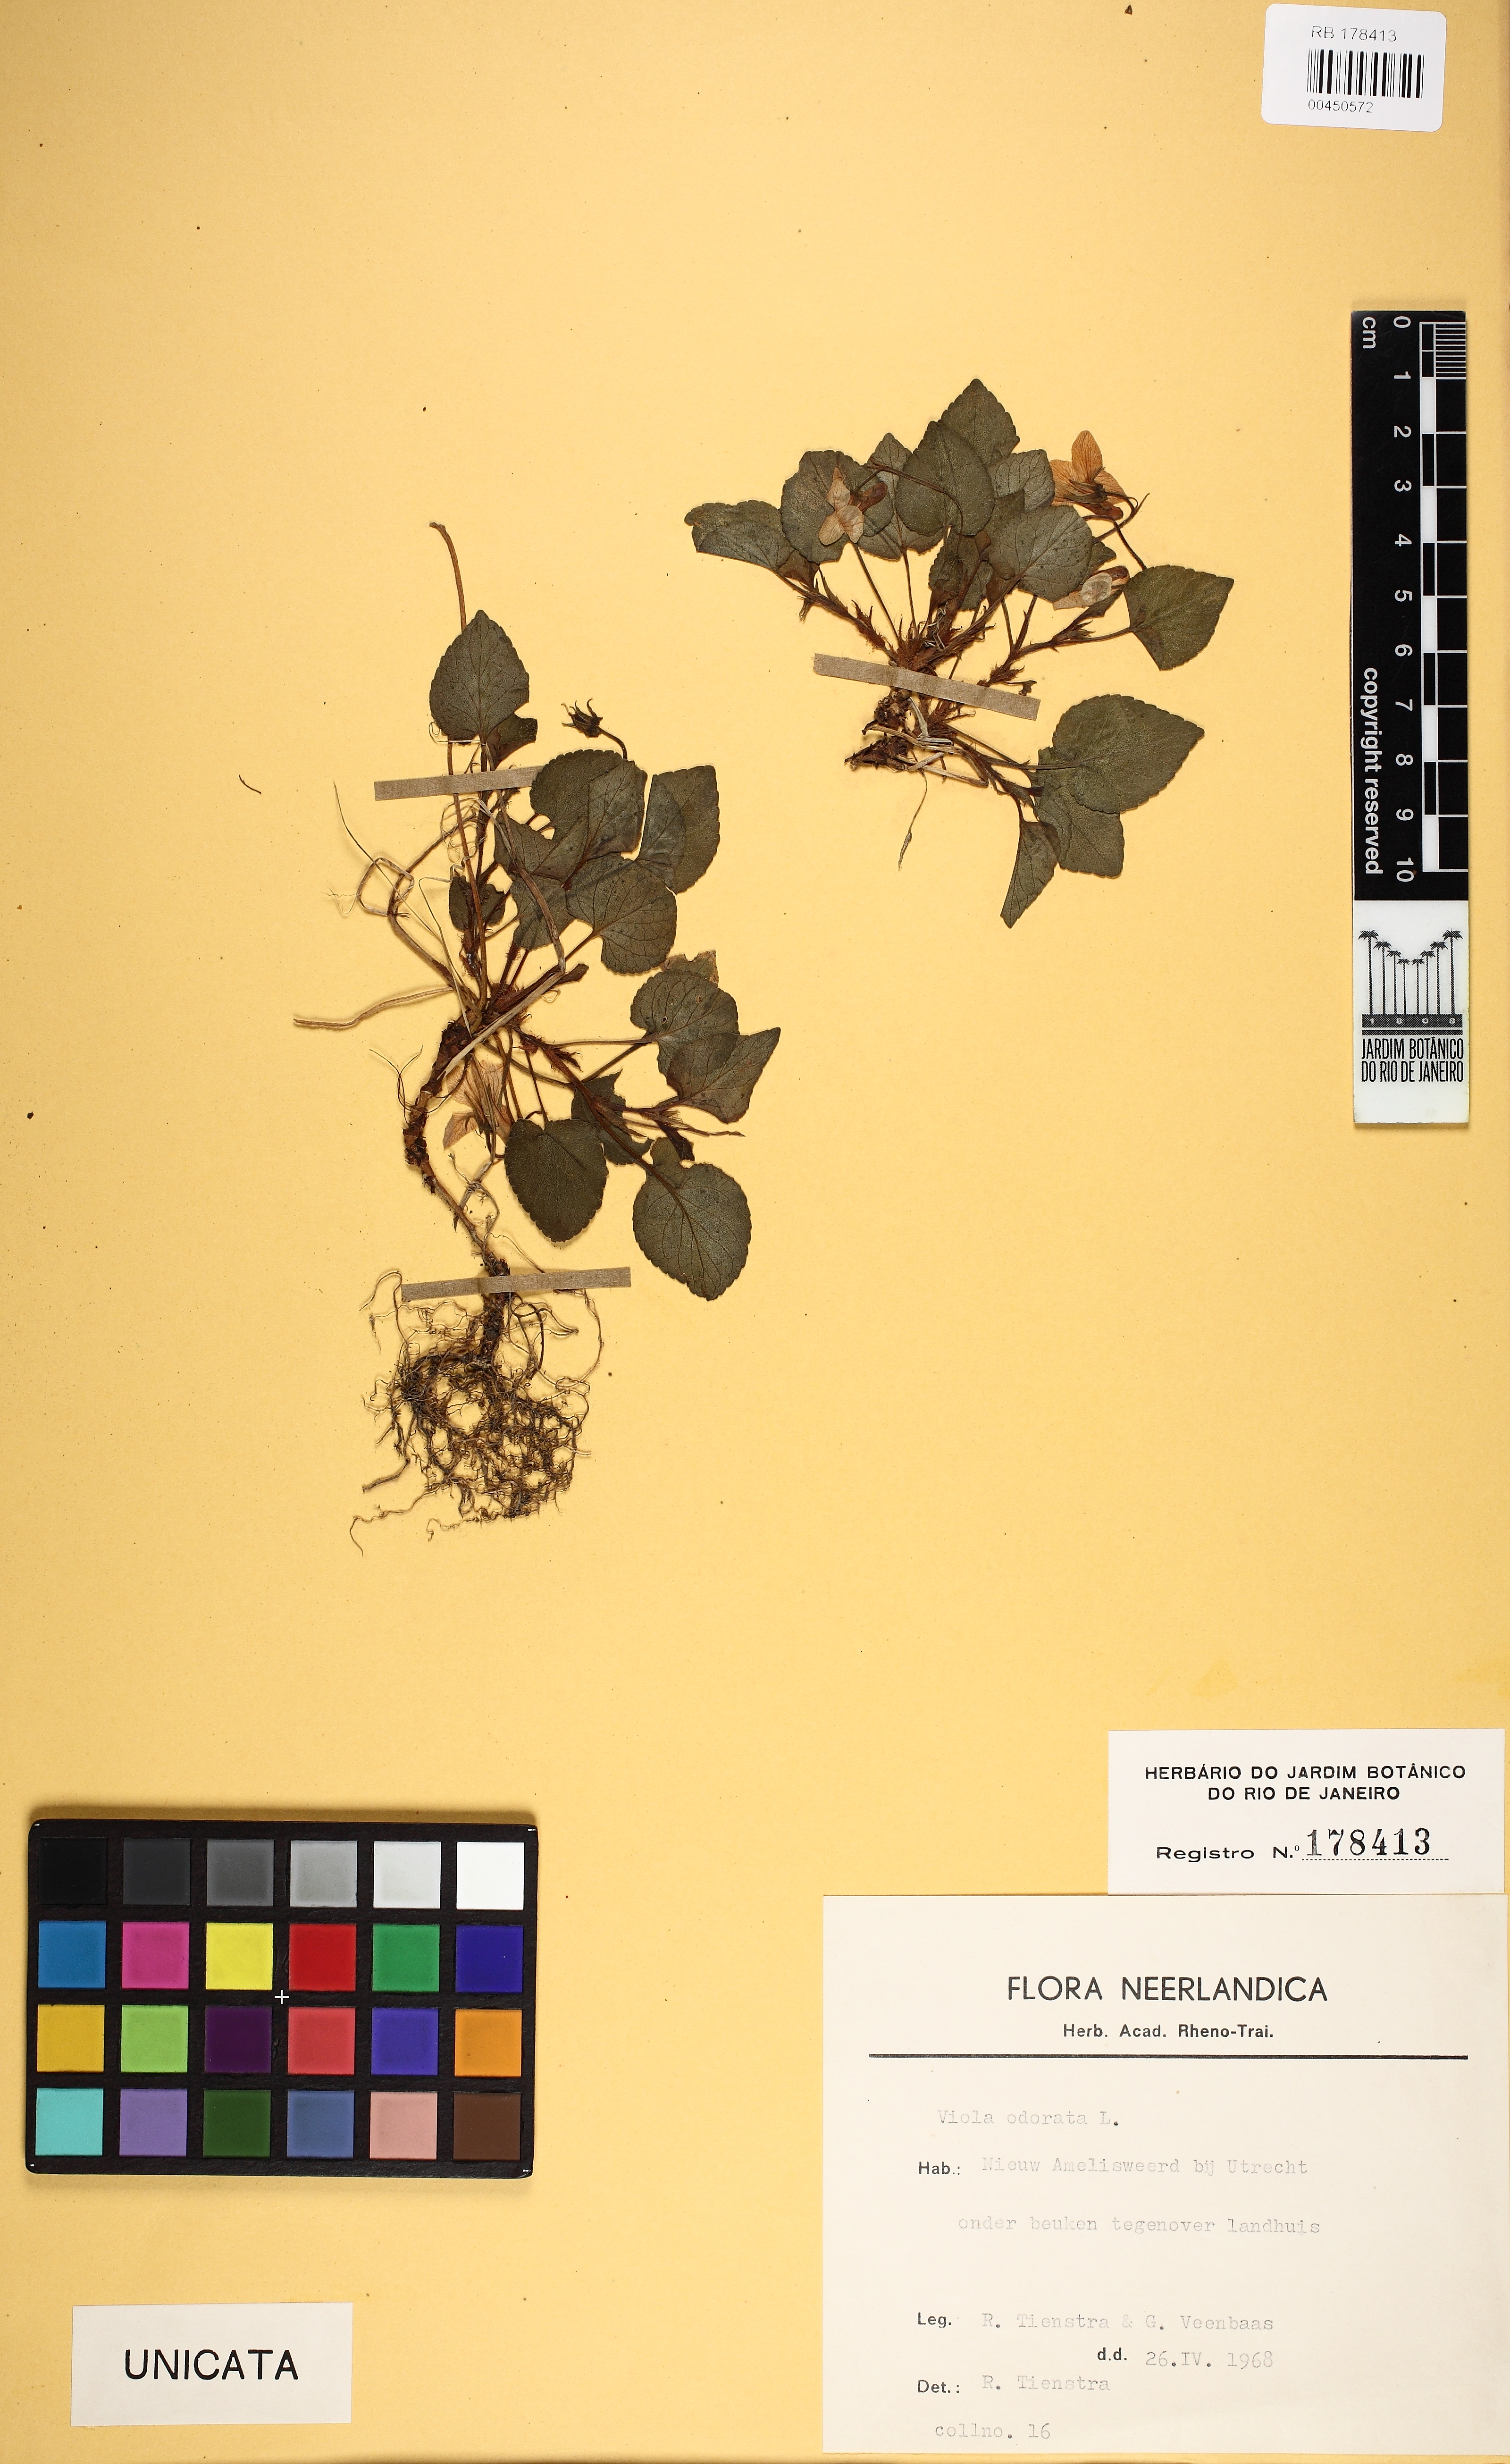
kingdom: Plantae
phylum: Tracheophyta
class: Magnoliopsida
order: Malpighiales
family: Violaceae
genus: Viola
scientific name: Viola odorata
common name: Sweet violet
